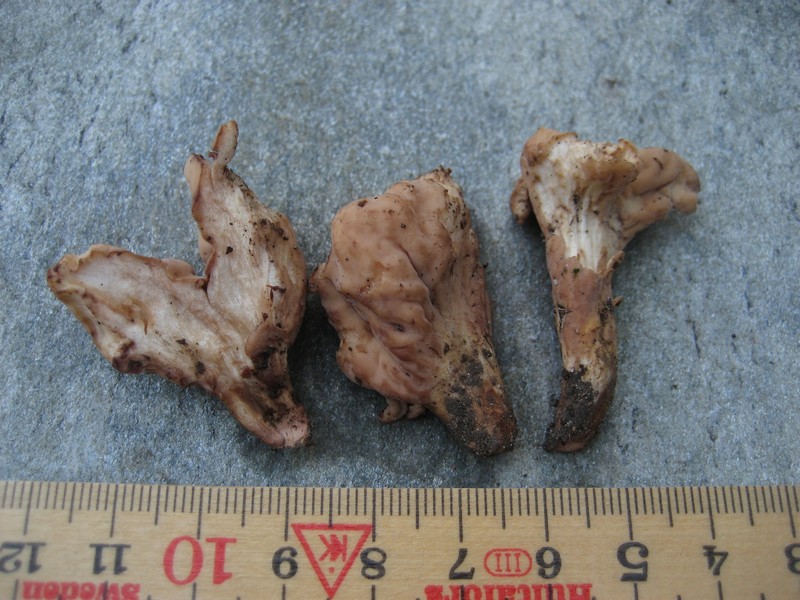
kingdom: Fungi
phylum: Basidiomycota
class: Agaricomycetes
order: Gomphales
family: Clavariadelphaceae
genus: Clavariadelphus
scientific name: Clavariadelphus pistillaris
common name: herkules-kæmpekølle
